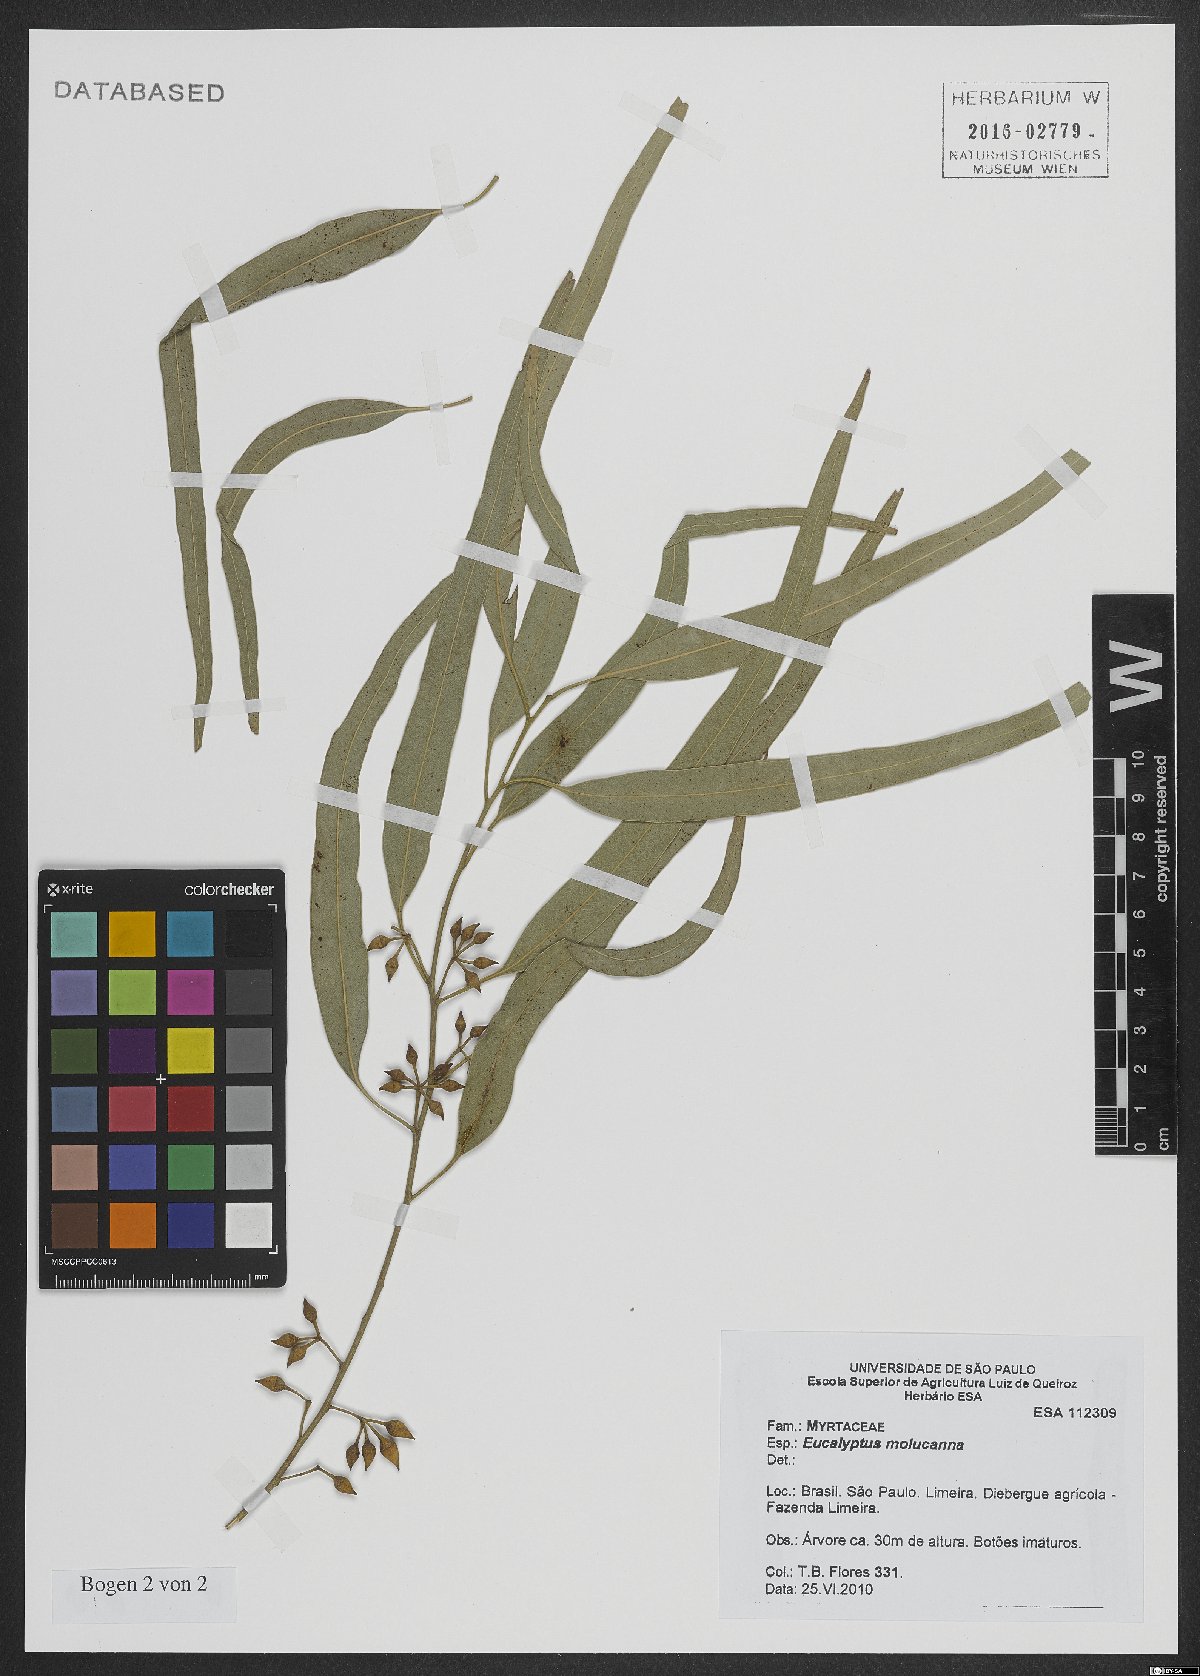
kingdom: Plantae
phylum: Tracheophyta
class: Magnoliopsida
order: Myrtales
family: Myrtaceae
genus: Eucalyptus
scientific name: Eucalyptus moluccana
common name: Grey-box
